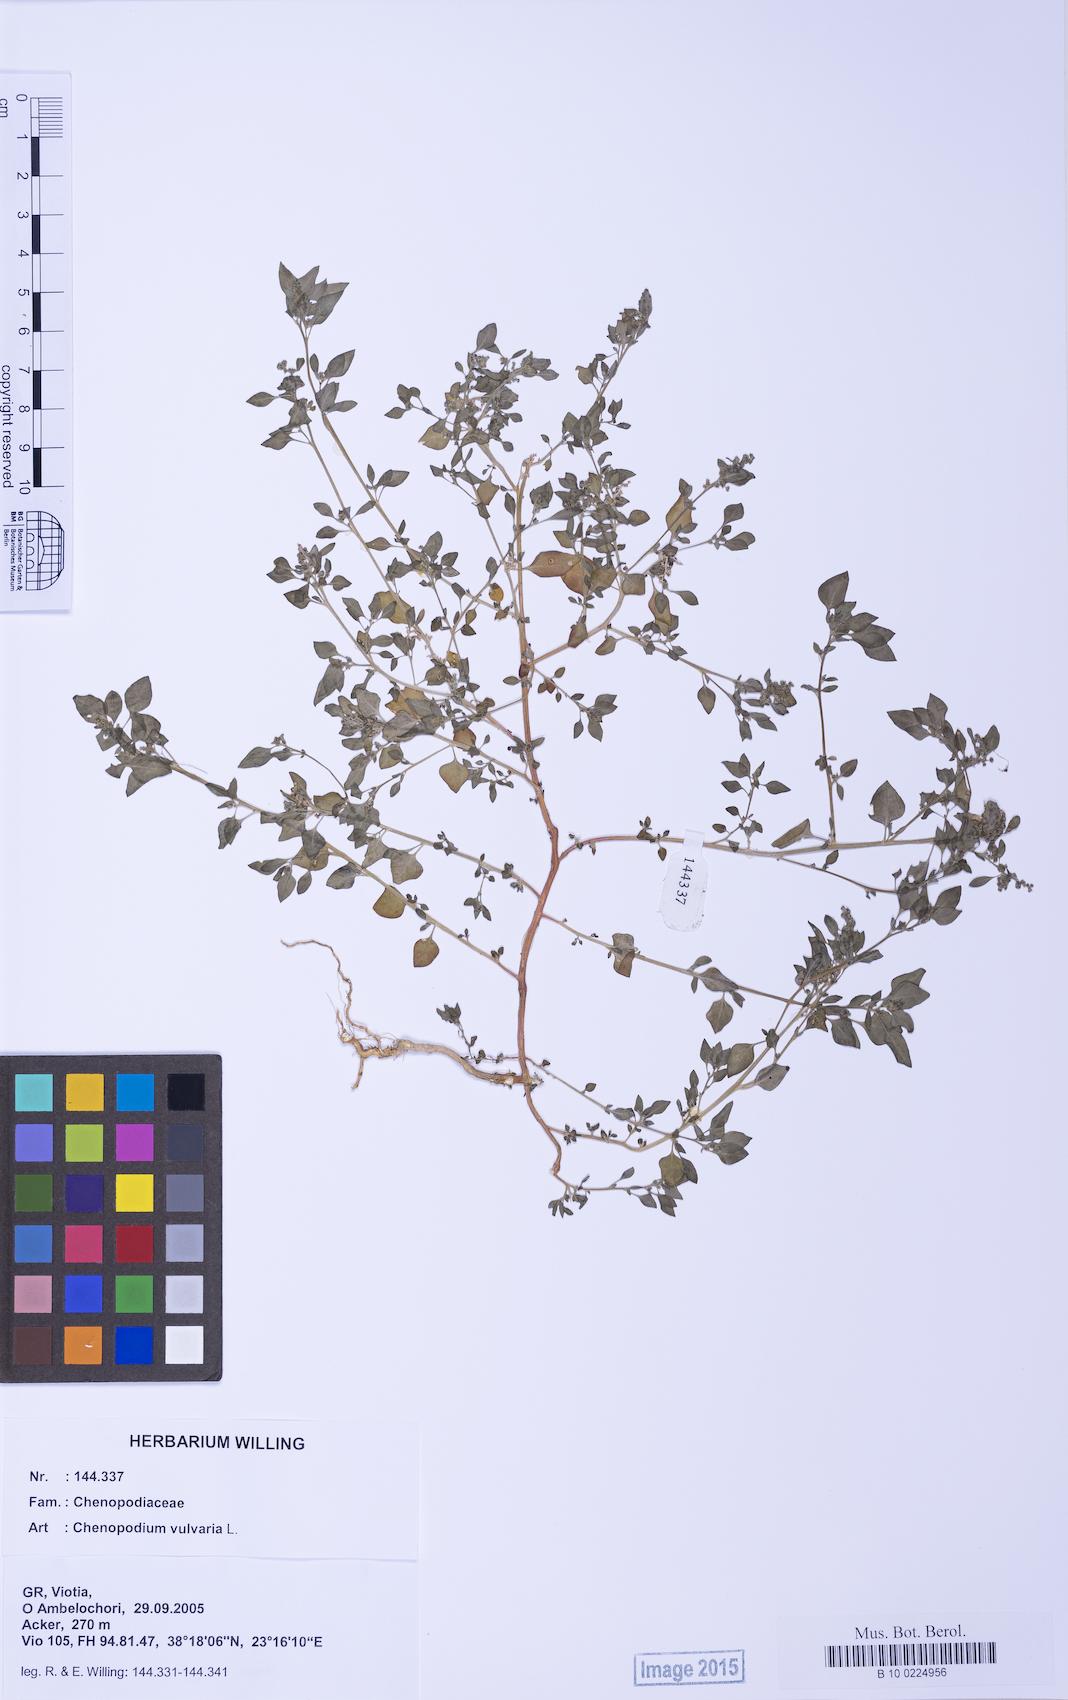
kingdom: Plantae
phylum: Tracheophyta
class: Magnoliopsida
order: Caryophyllales
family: Amaranthaceae
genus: Chenopodium
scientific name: Chenopodium vulvaria
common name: Stinking goosefoot
